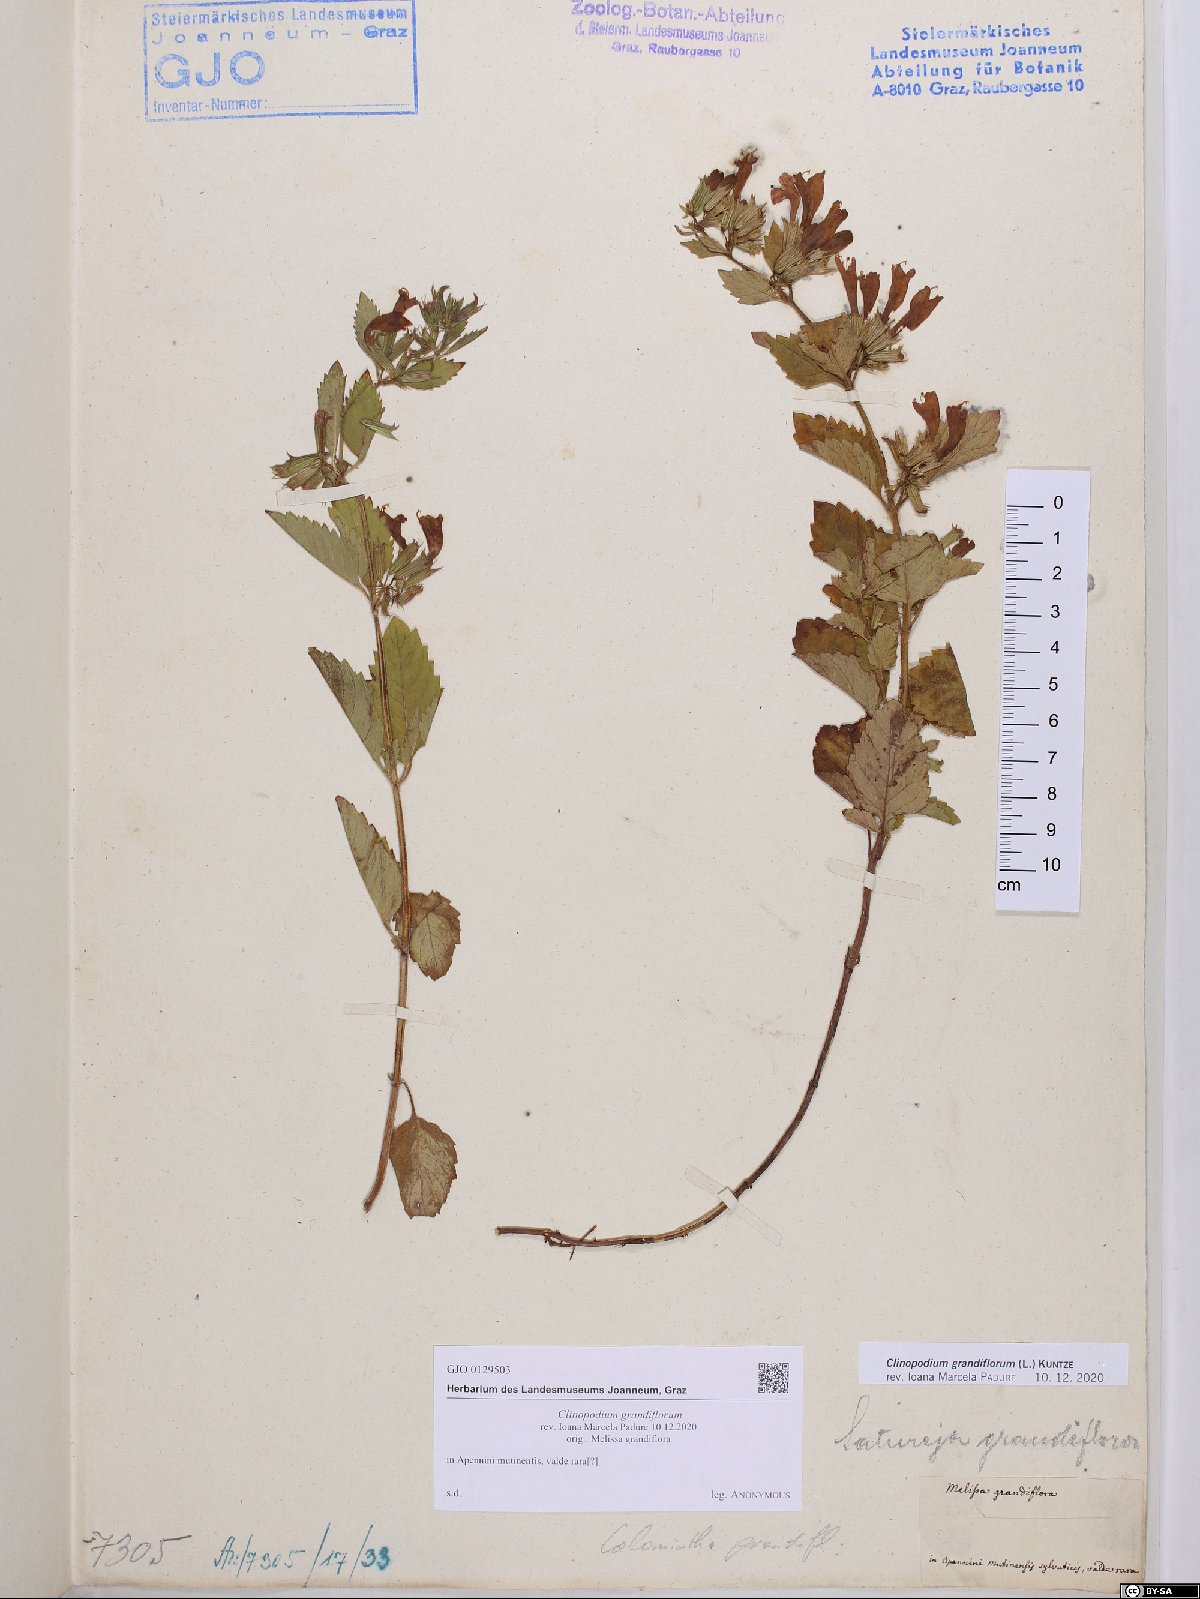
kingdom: Plantae
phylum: Tracheophyta
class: Magnoliopsida
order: Lamiales
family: Lamiaceae
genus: Clinopodium
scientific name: Clinopodium grandiflorum
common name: Greater calamint
